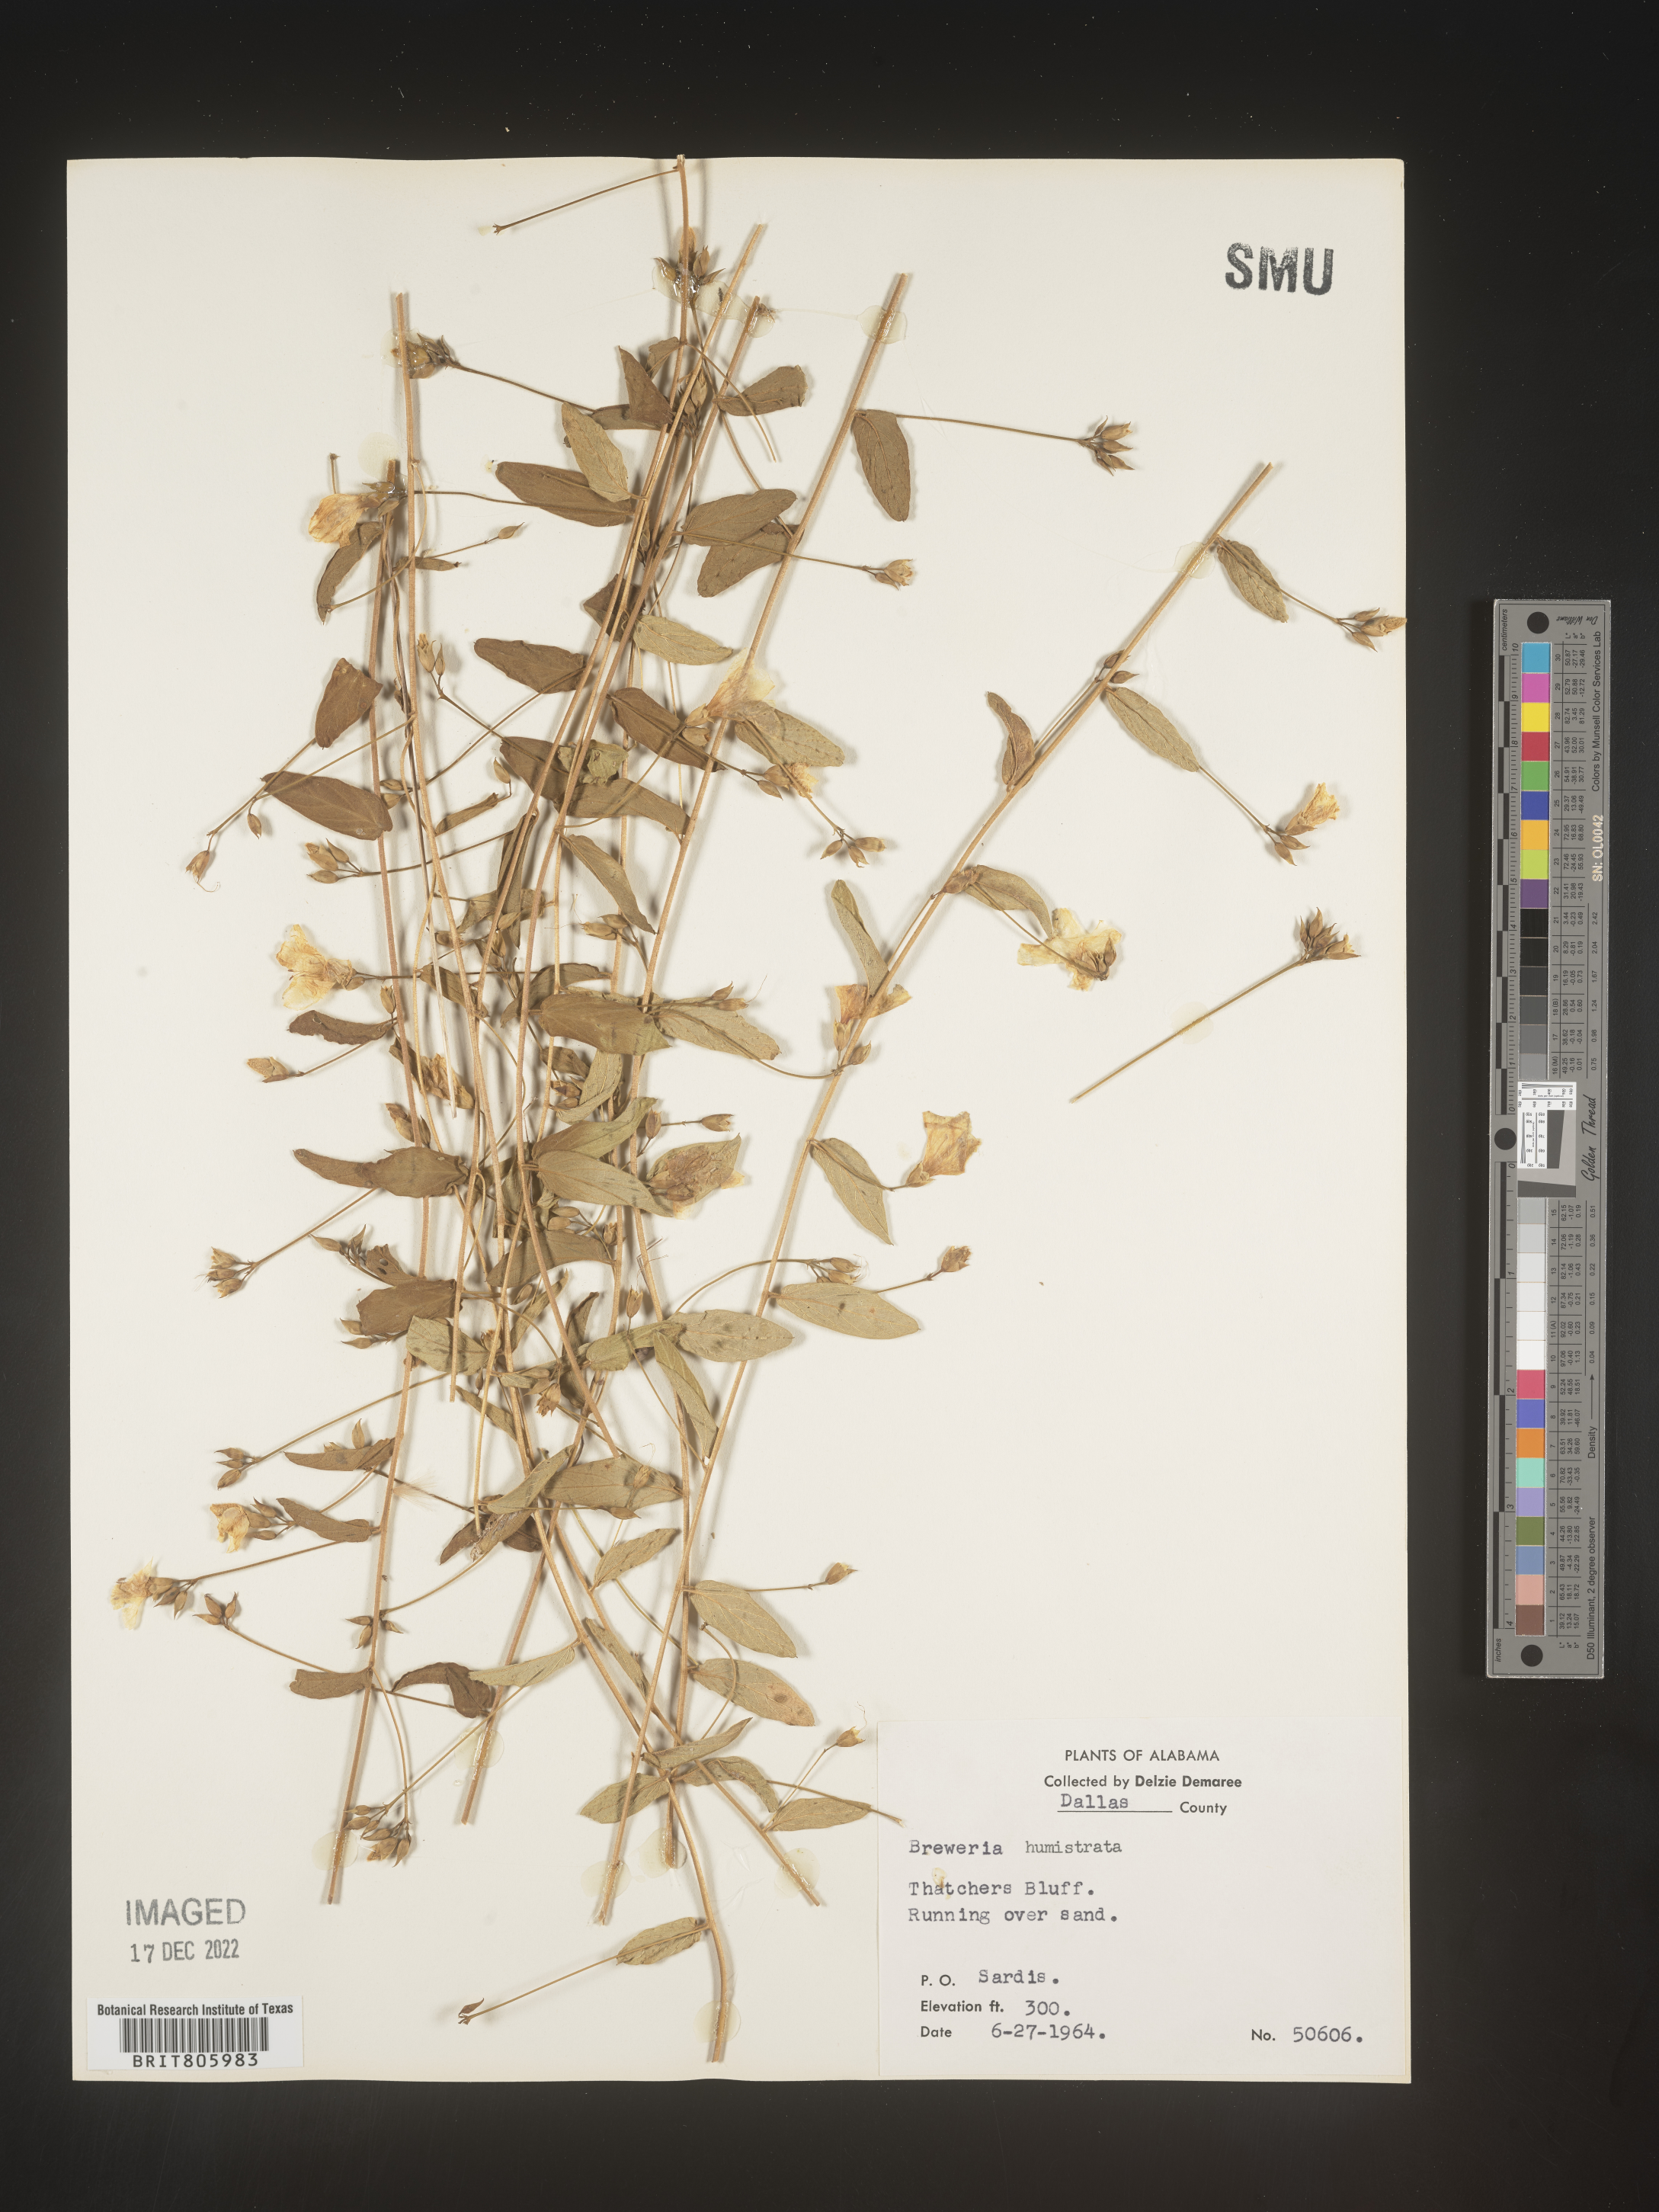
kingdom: Plantae
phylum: Tracheophyta
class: Magnoliopsida
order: Solanales
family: Convolvulaceae
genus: Stylisma
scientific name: Stylisma humistrata
